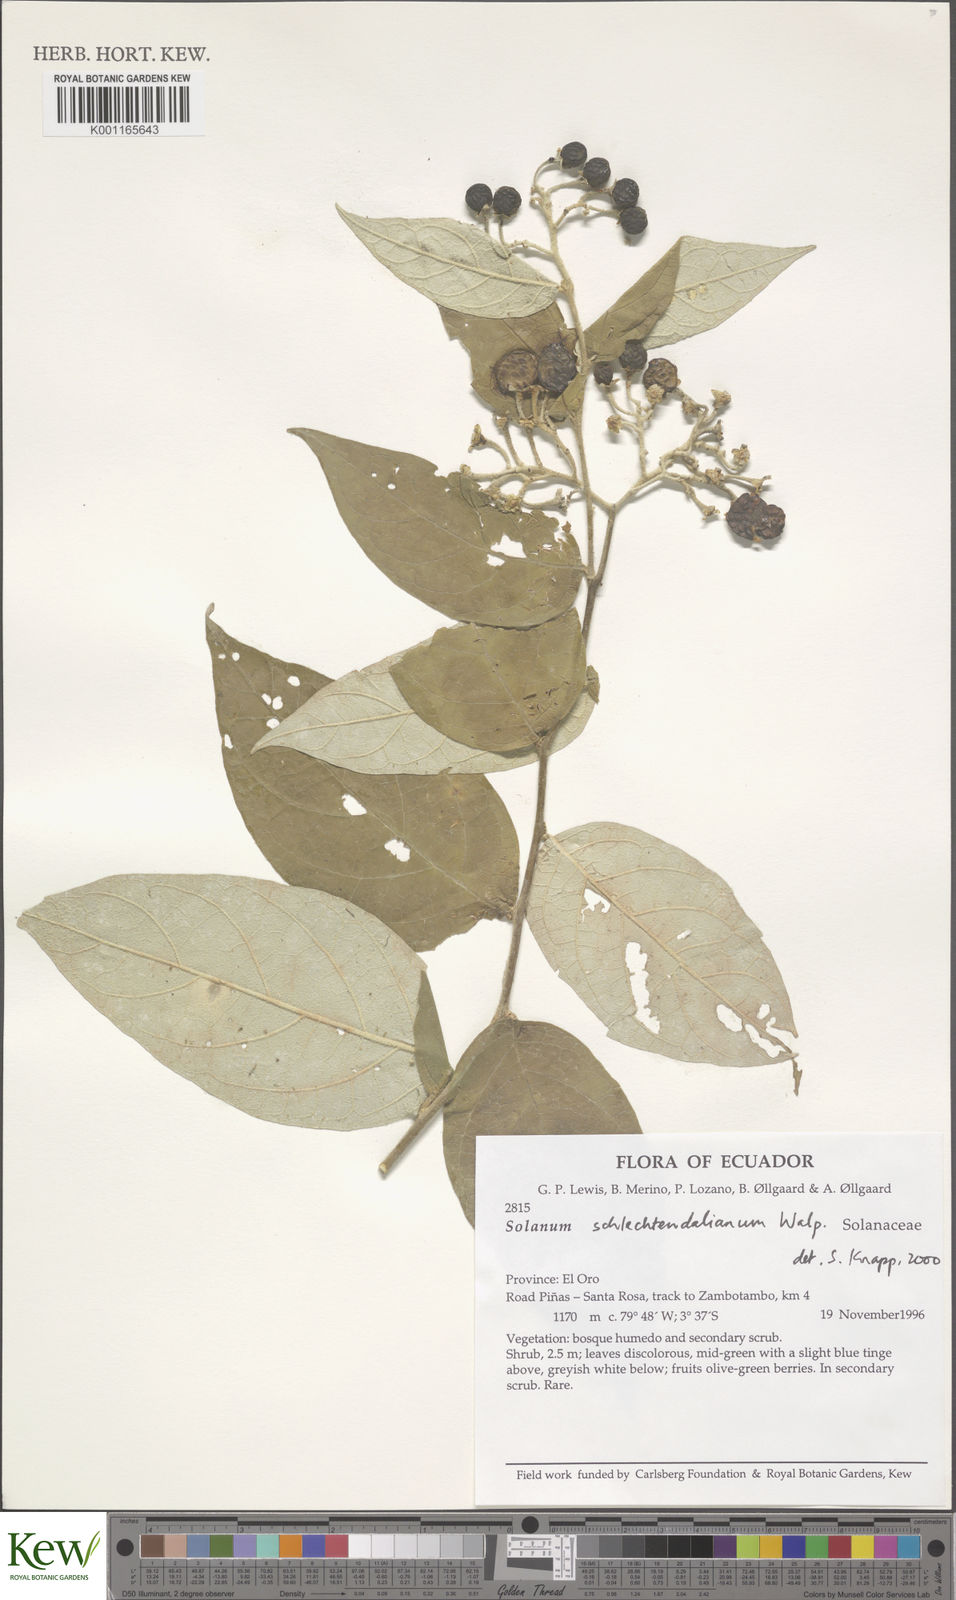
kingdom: Plantae
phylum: Tracheophyta
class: Magnoliopsida
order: Solanales
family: Solanaceae
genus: Solanum
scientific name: Solanum schlechtendalianum
